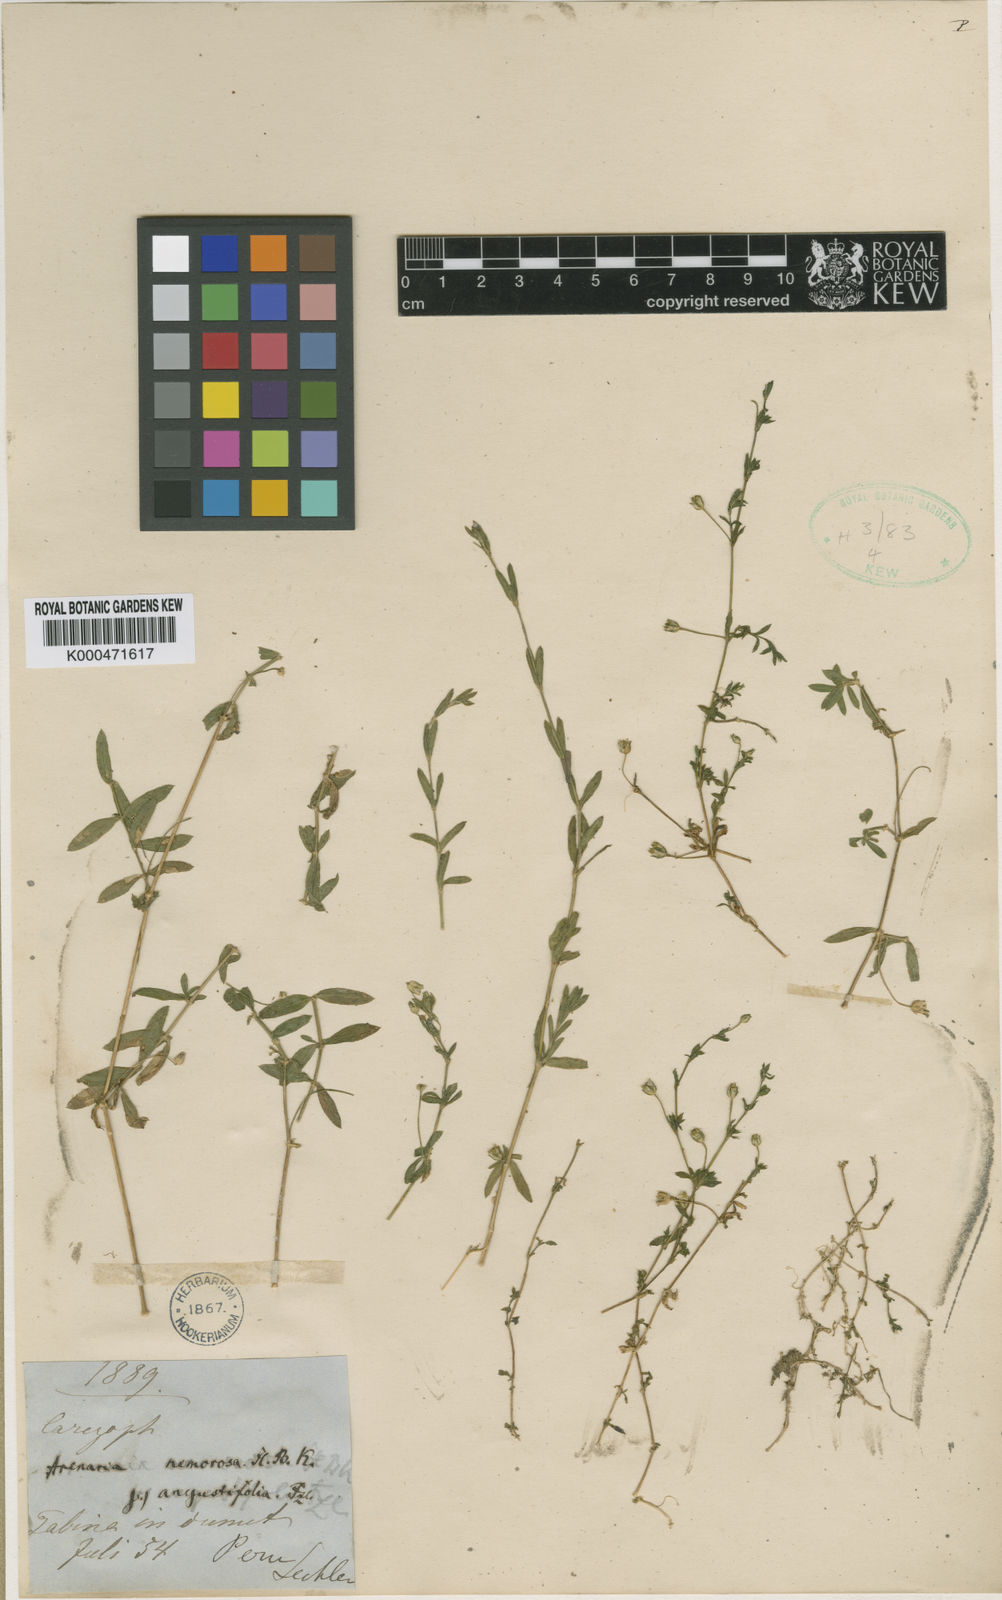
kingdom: Plantae
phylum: Tracheophyta
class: Magnoliopsida
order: Caryophyllales
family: Caryophyllaceae
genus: Arenaria
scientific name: Arenaria lanuginosa
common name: Spread sandwort
